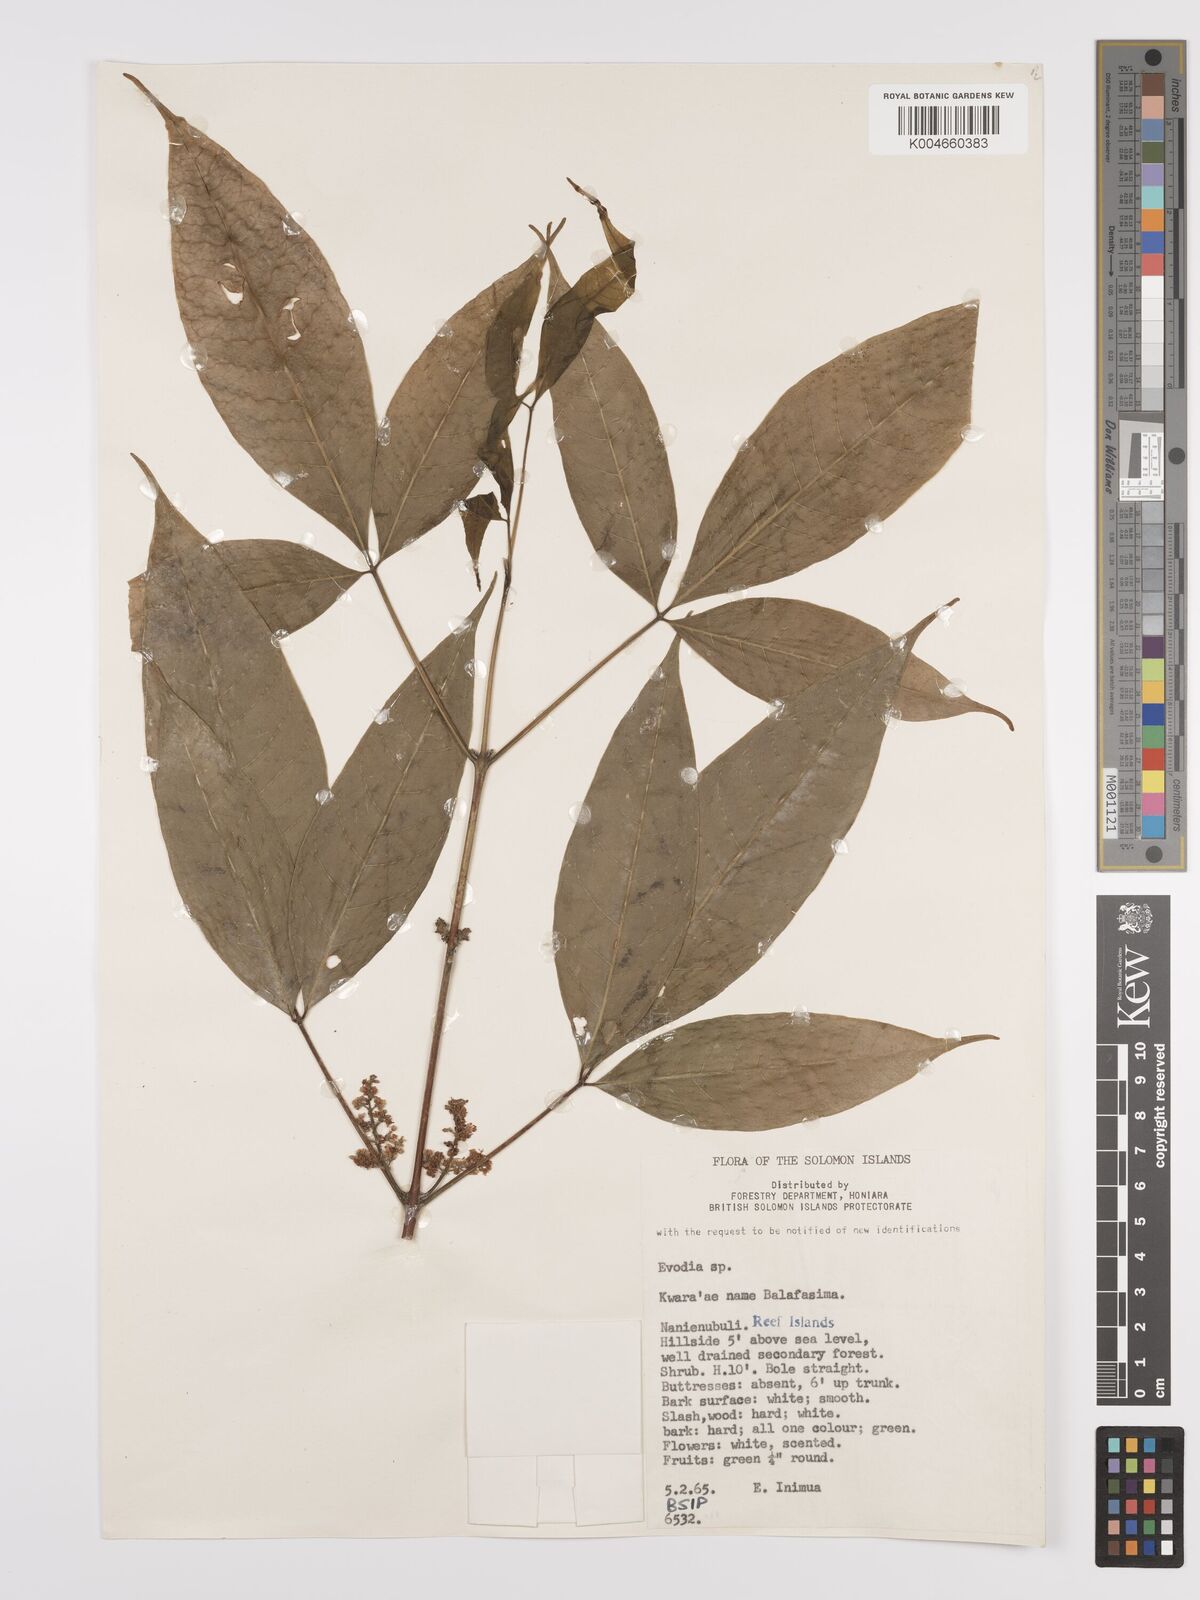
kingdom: Plantae
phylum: Tracheophyta
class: Magnoliopsida
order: Sapindales
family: Rutaceae
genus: Euodia
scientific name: Euodia
